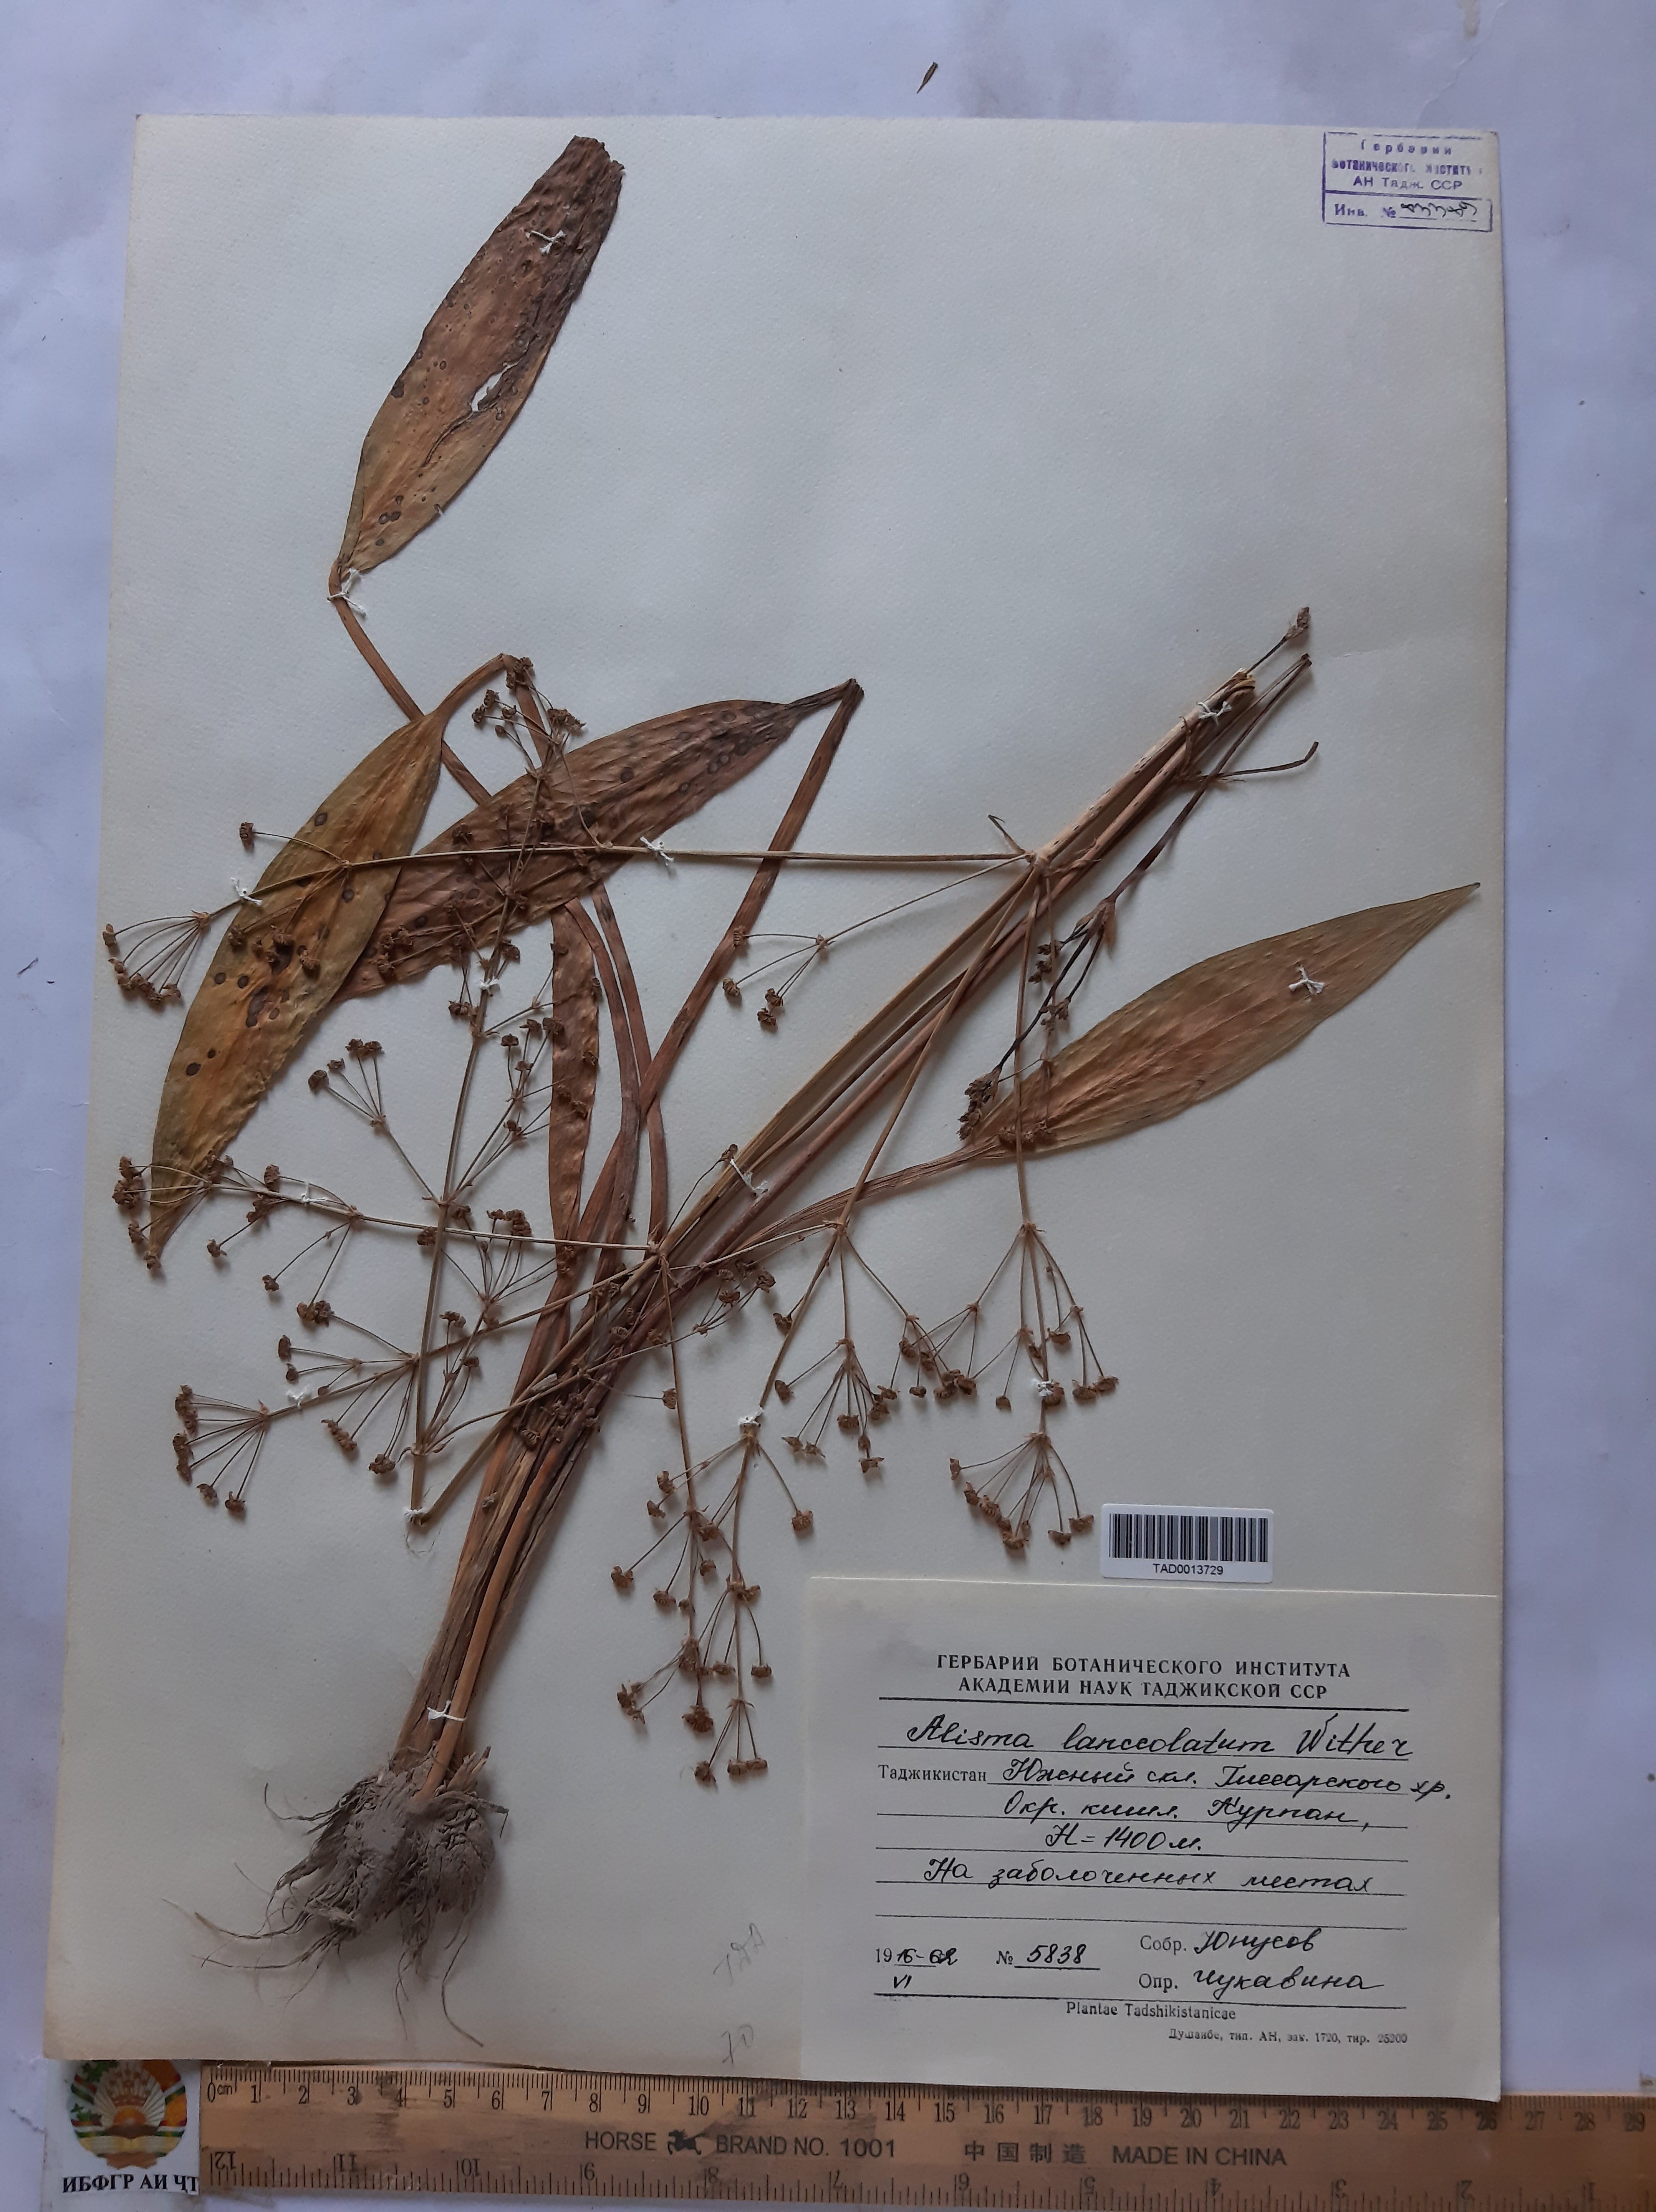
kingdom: Plantae
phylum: Tracheophyta
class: Liliopsida
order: Alismatales
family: Alismataceae
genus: Alisma
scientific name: Alisma lanceolatum
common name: Narrow-leaved water-plantain
